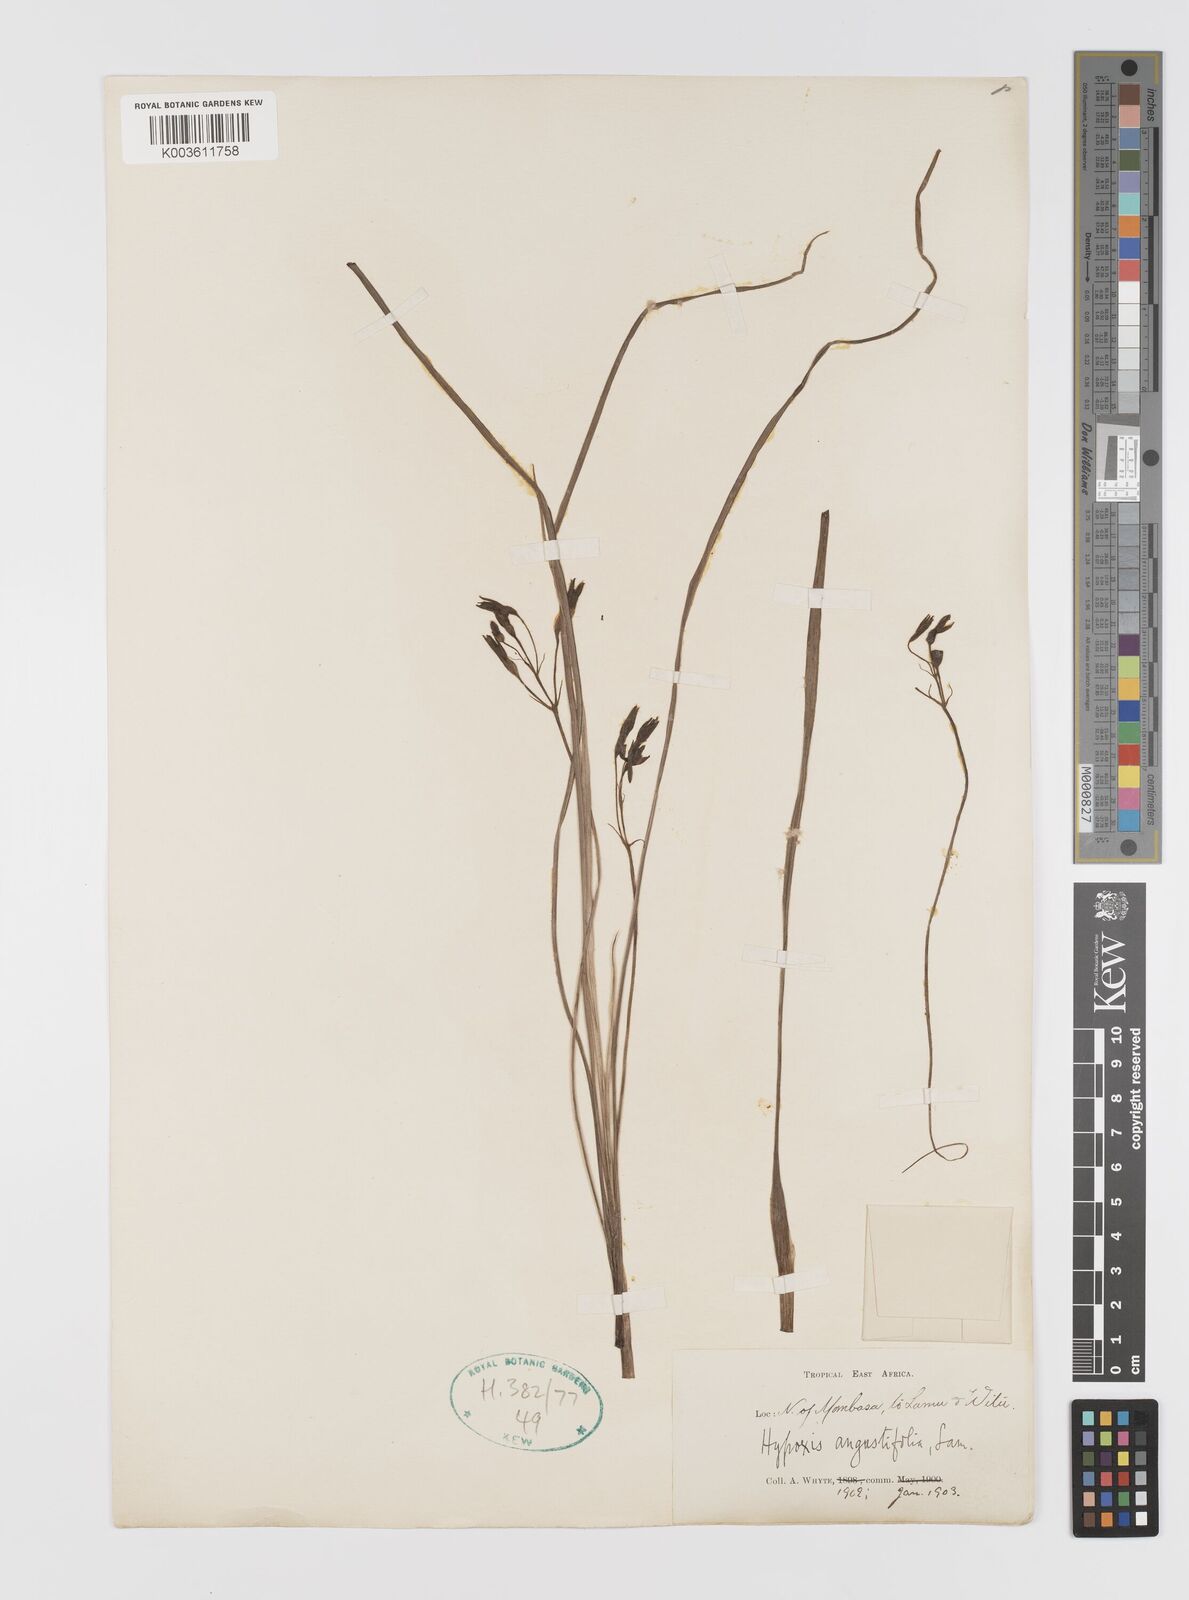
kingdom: Plantae
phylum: Tracheophyta
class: Liliopsida
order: Asparagales
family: Hypoxidaceae
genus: Hypoxis
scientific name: Hypoxis angustifolia
